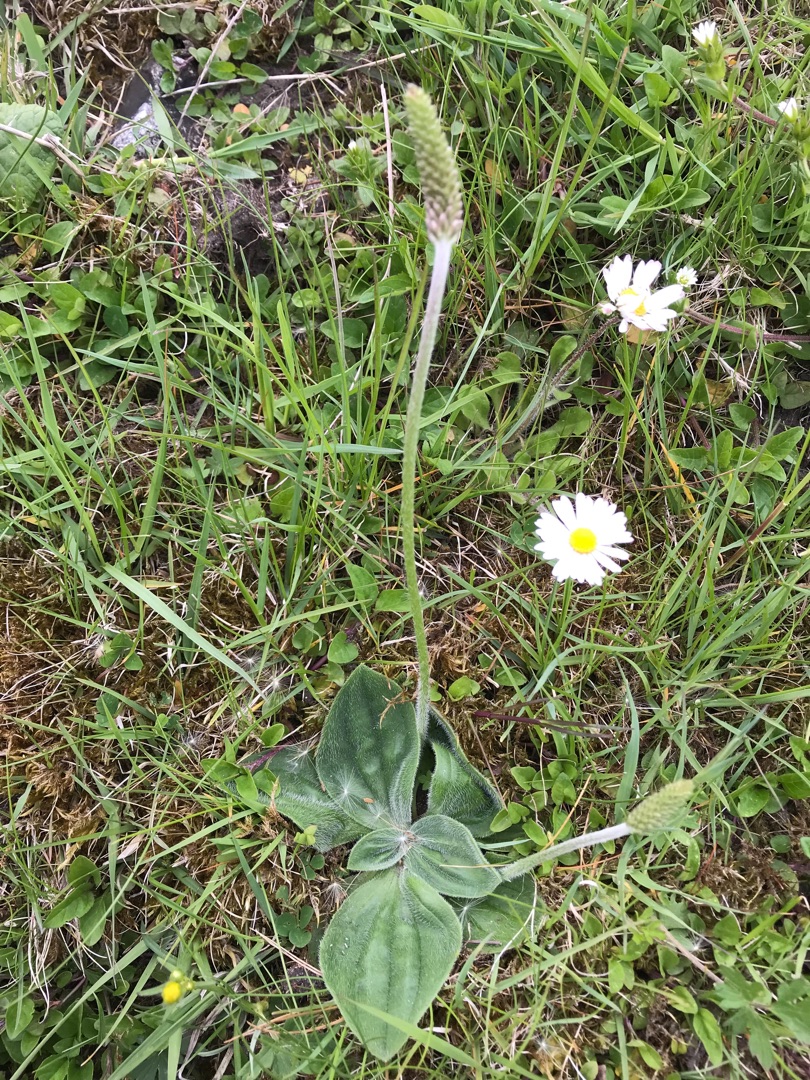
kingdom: Plantae
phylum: Tracheophyta
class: Magnoliopsida
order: Lamiales
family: Plantaginaceae
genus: Plantago
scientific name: Plantago media
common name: Dunet vejbred
